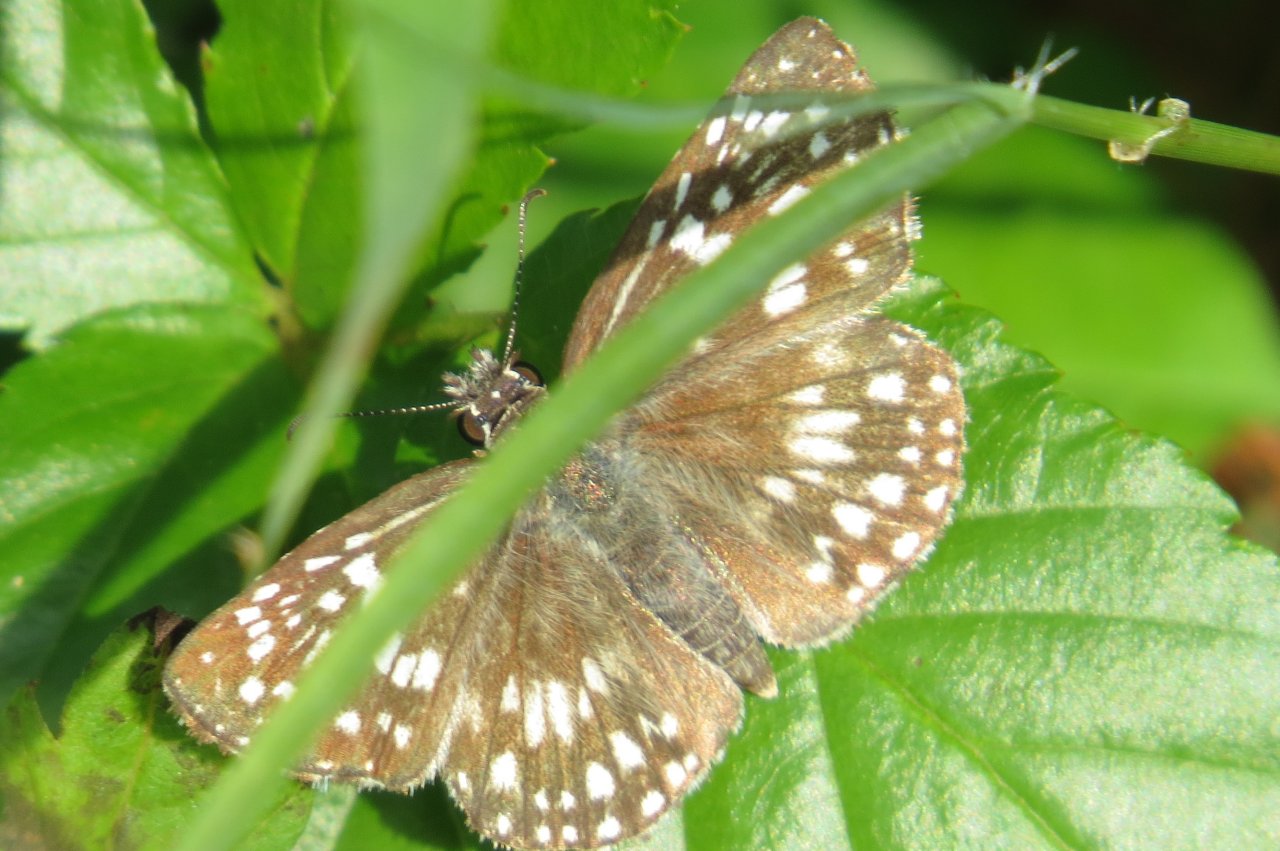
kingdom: Animalia
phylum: Arthropoda
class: Insecta
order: Lepidoptera
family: Hesperiidae
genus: Pyrgus
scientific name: Pyrgus oileus
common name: Tropical Checkered-Skipper
